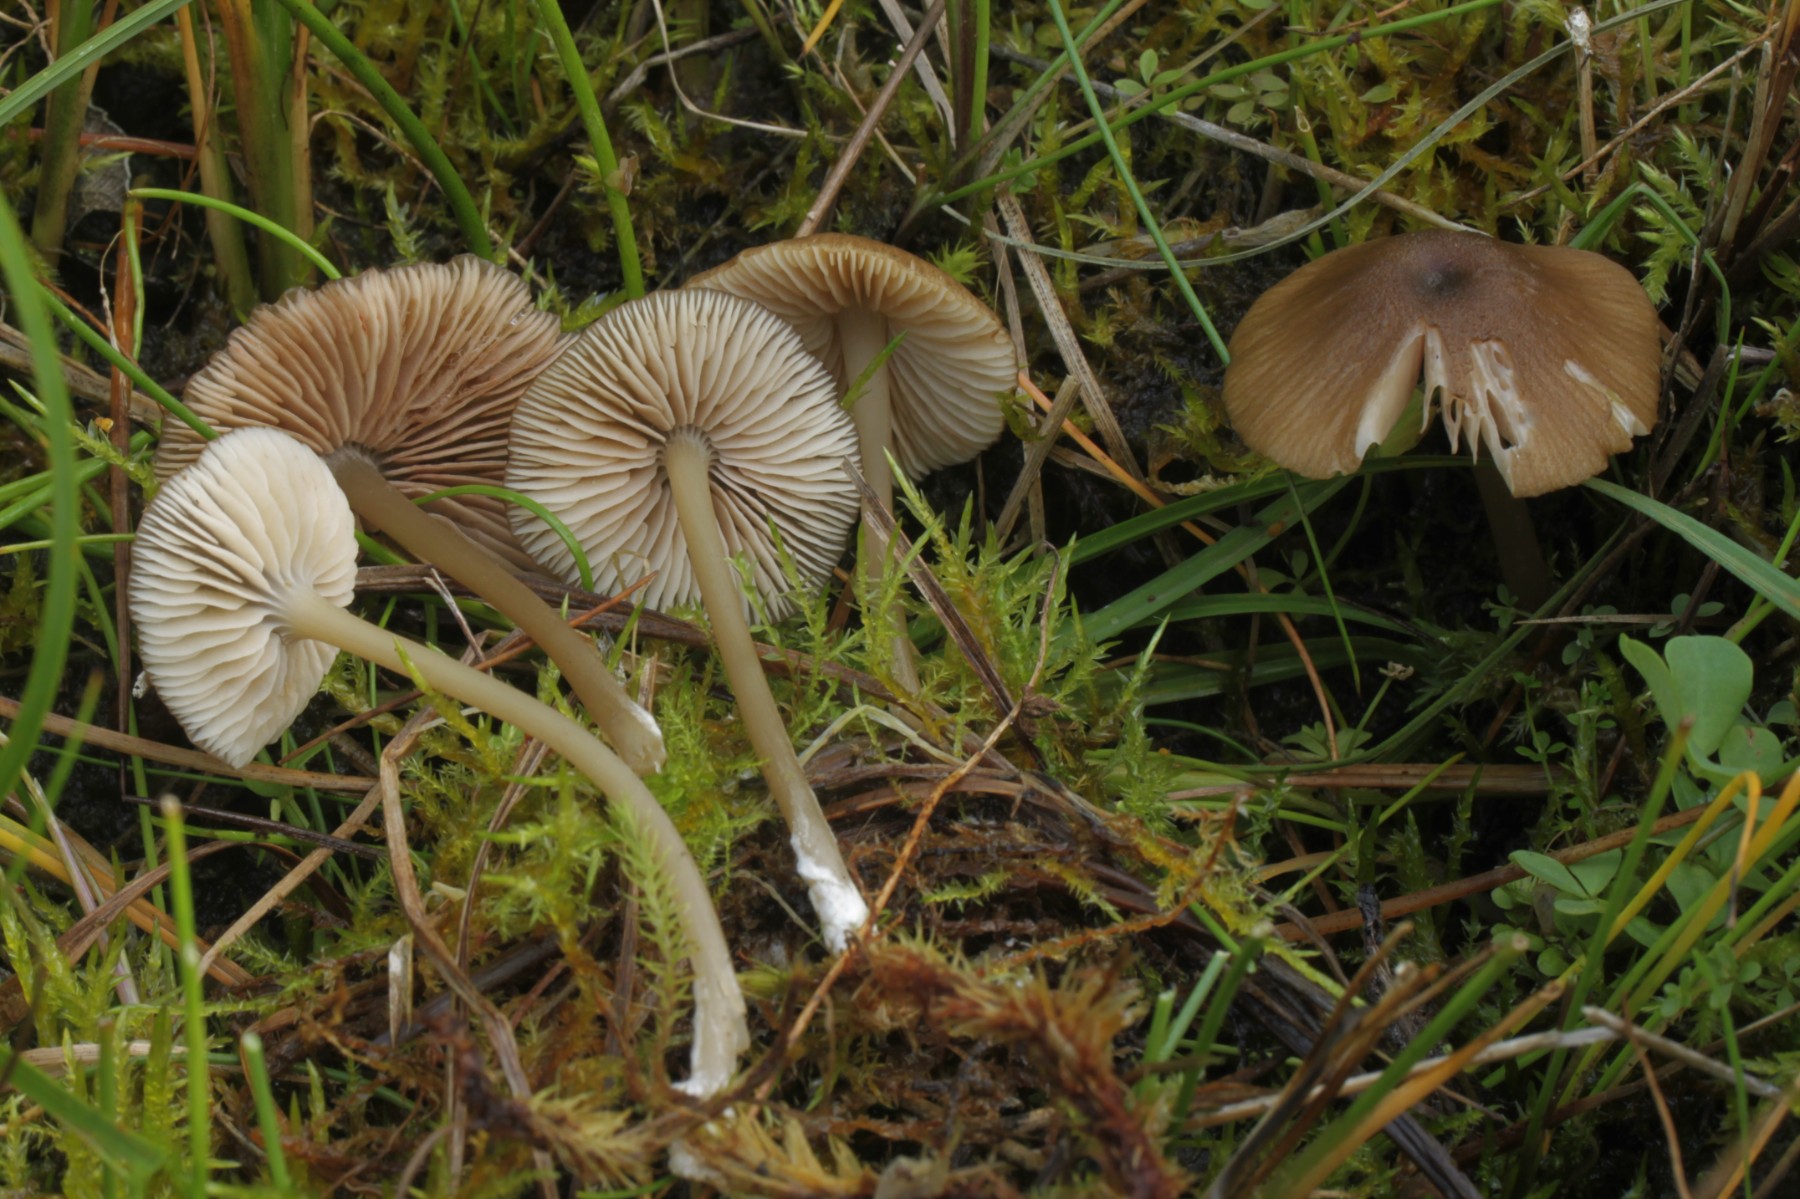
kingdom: Fungi
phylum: Basidiomycota
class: Agaricomycetes
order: Agaricales
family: Entolomataceae
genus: Entoloma
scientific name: Entoloma longistriatum
